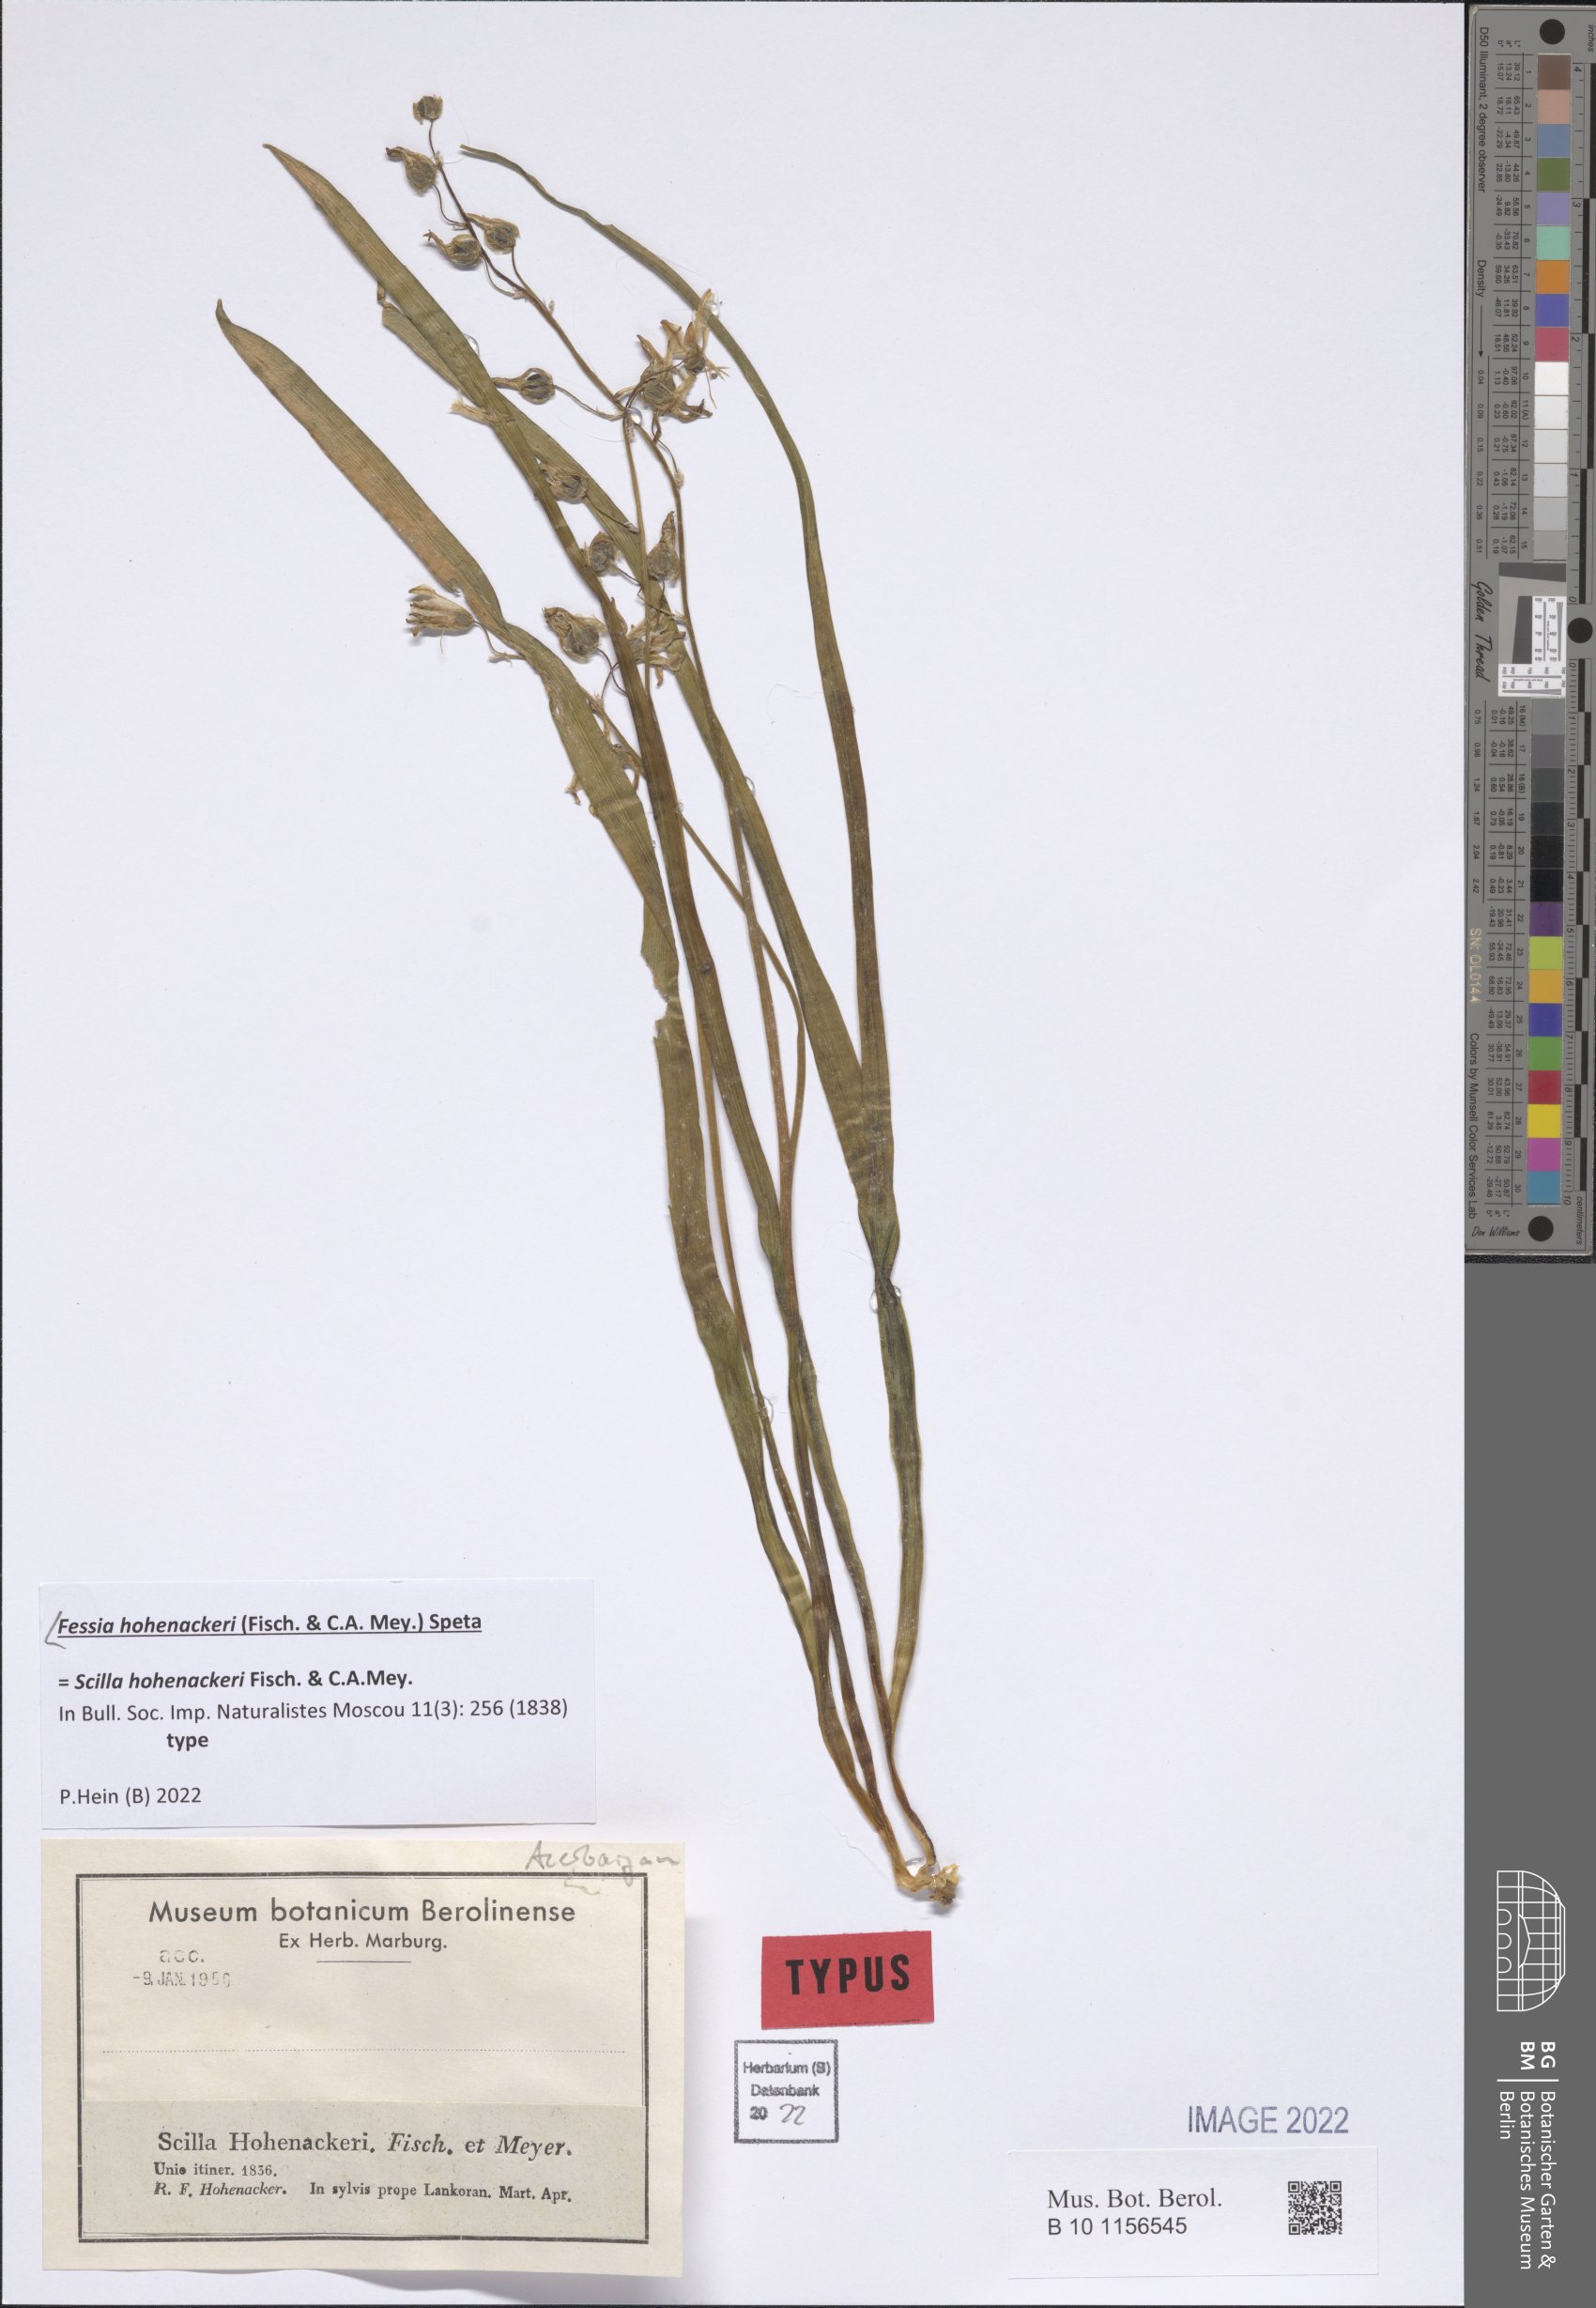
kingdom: Plantae
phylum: Tracheophyta
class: Liliopsida
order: Asparagales
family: Asparagaceae
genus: Fessia
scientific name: Fessia hohenackeri
